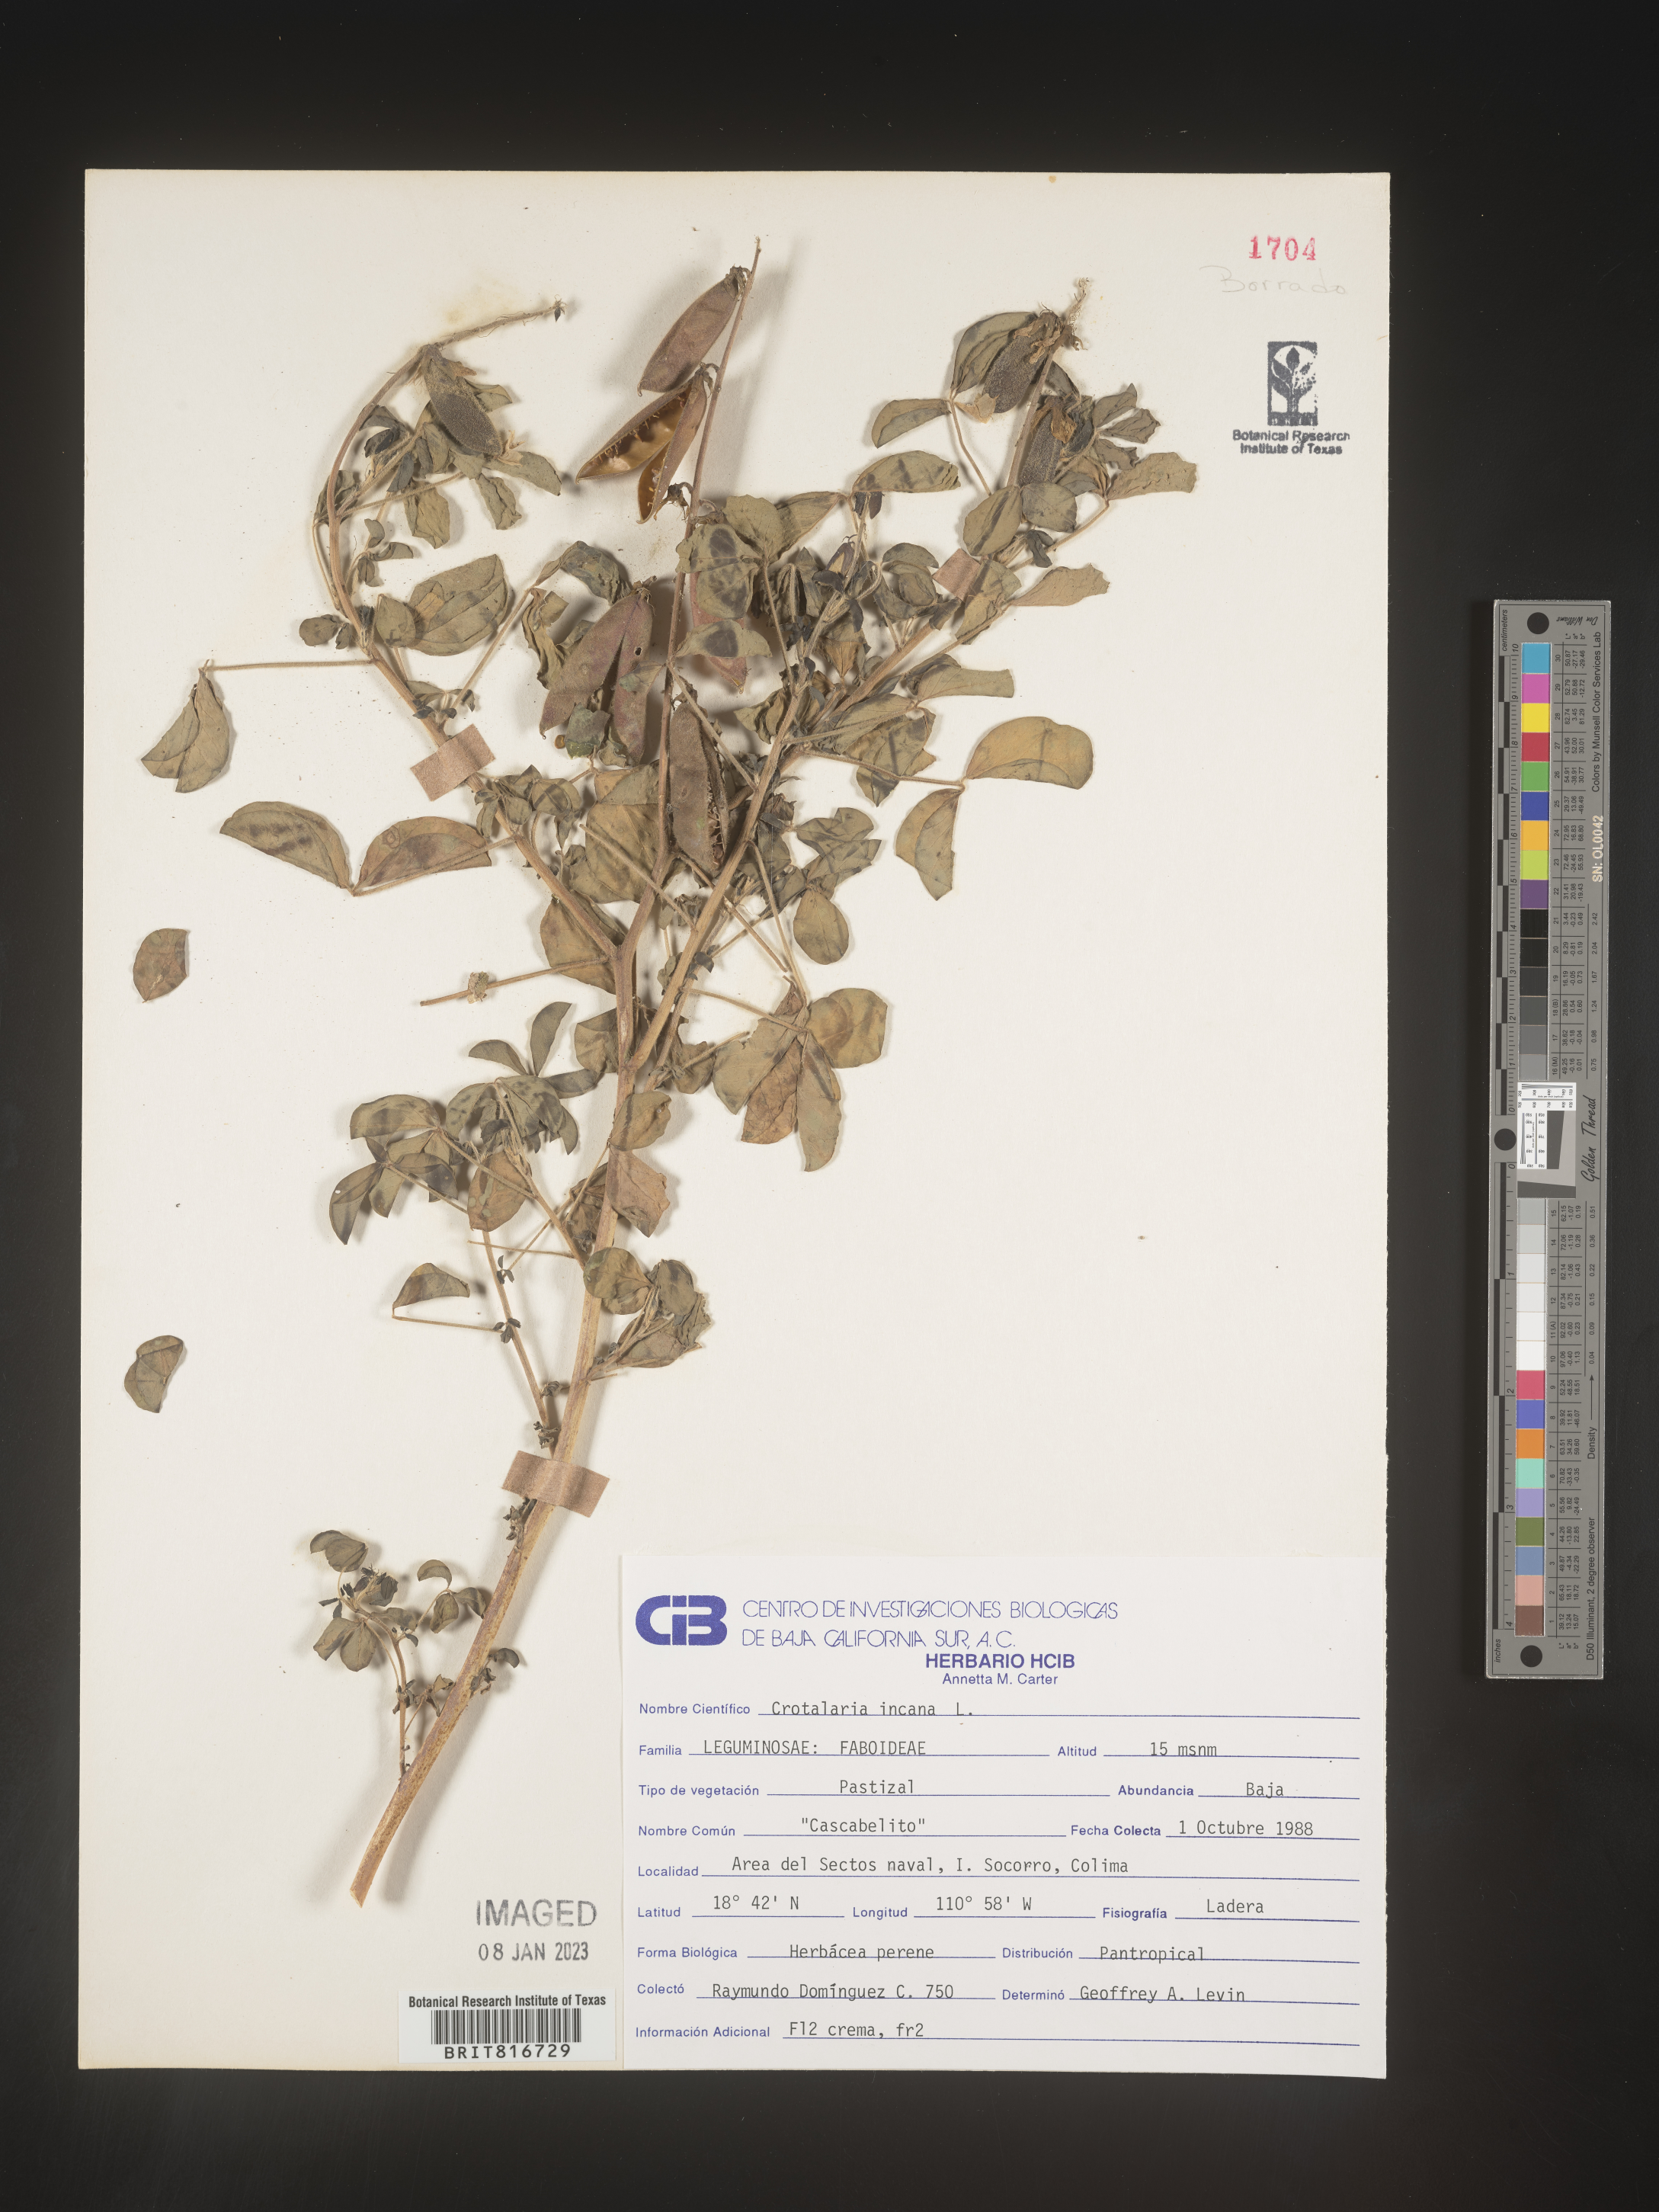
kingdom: Plantae
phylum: Tracheophyta
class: Magnoliopsida
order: Fabales
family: Fabaceae
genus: Crotalaria
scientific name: Crotalaria
